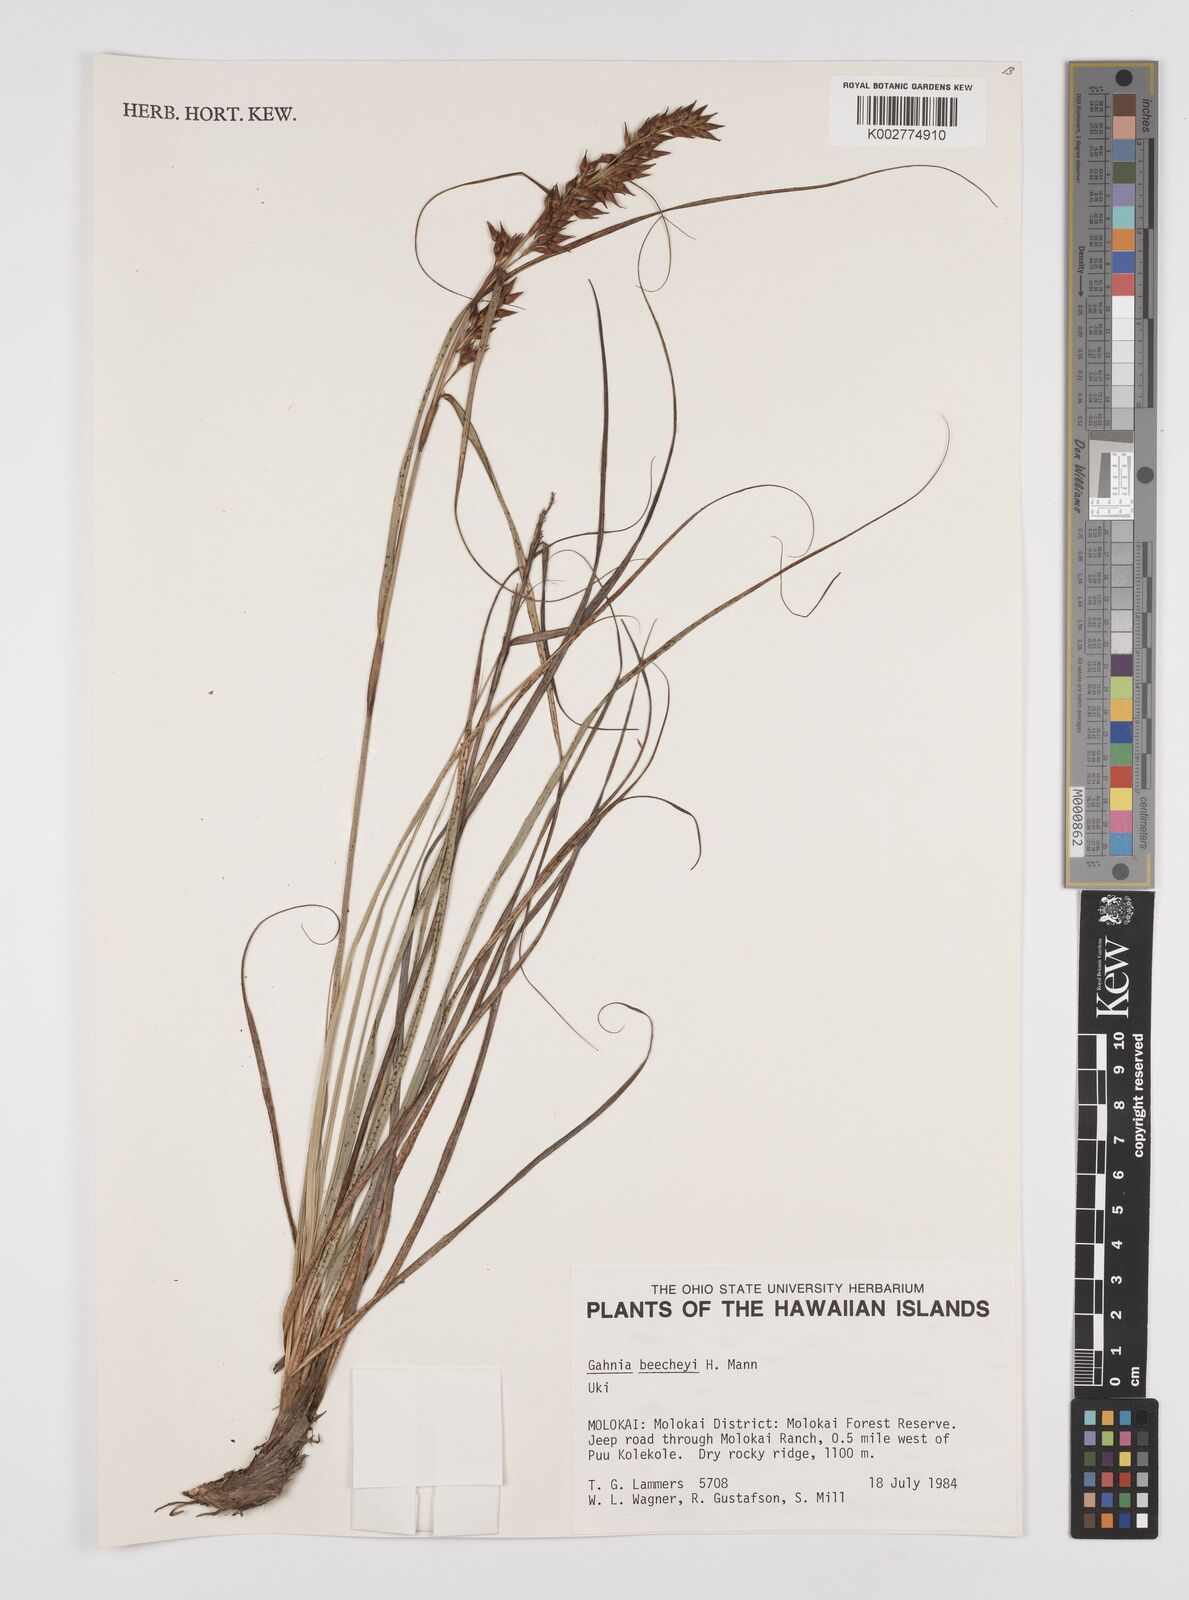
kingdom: Plantae
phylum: Tracheophyta
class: Liliopsida
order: Poales
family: Cyperaceae
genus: Gahnia
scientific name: Gahnia beecheyi
